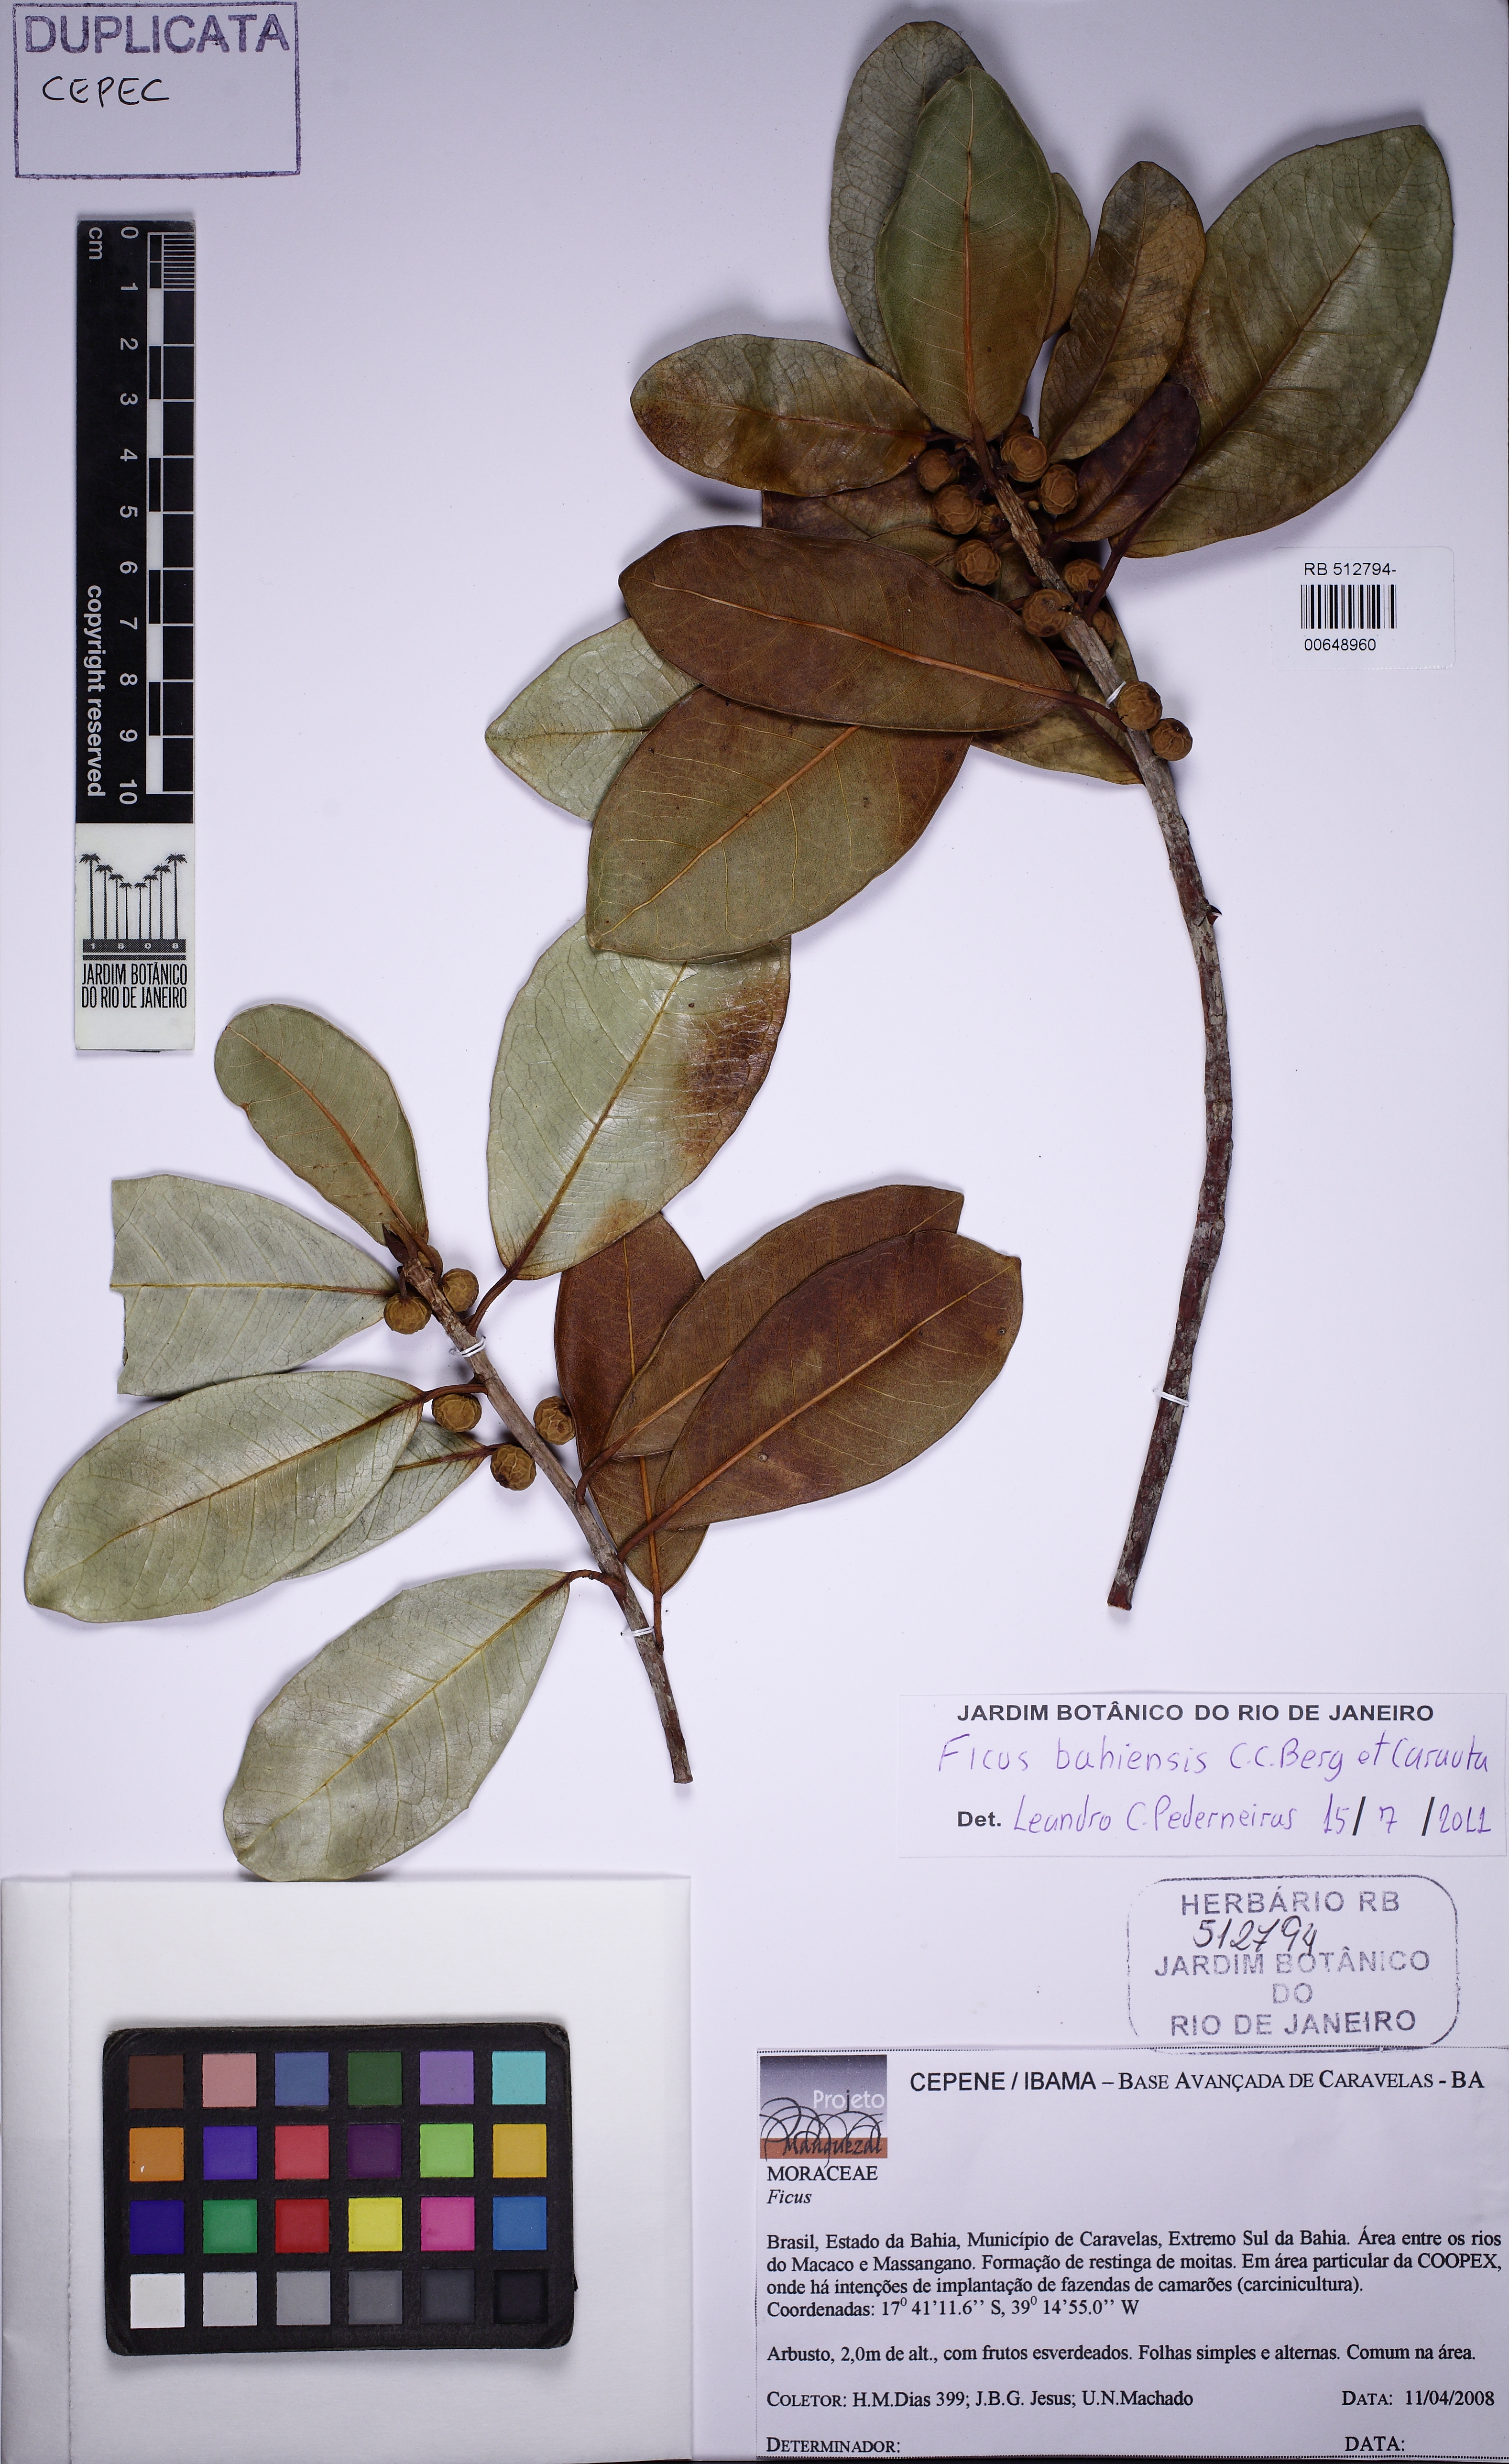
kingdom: Plantae
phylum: Tracheophyta
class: Magnoliopsida
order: Rosales
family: Moraceae
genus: Ficus
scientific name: Ficus bahiensis
